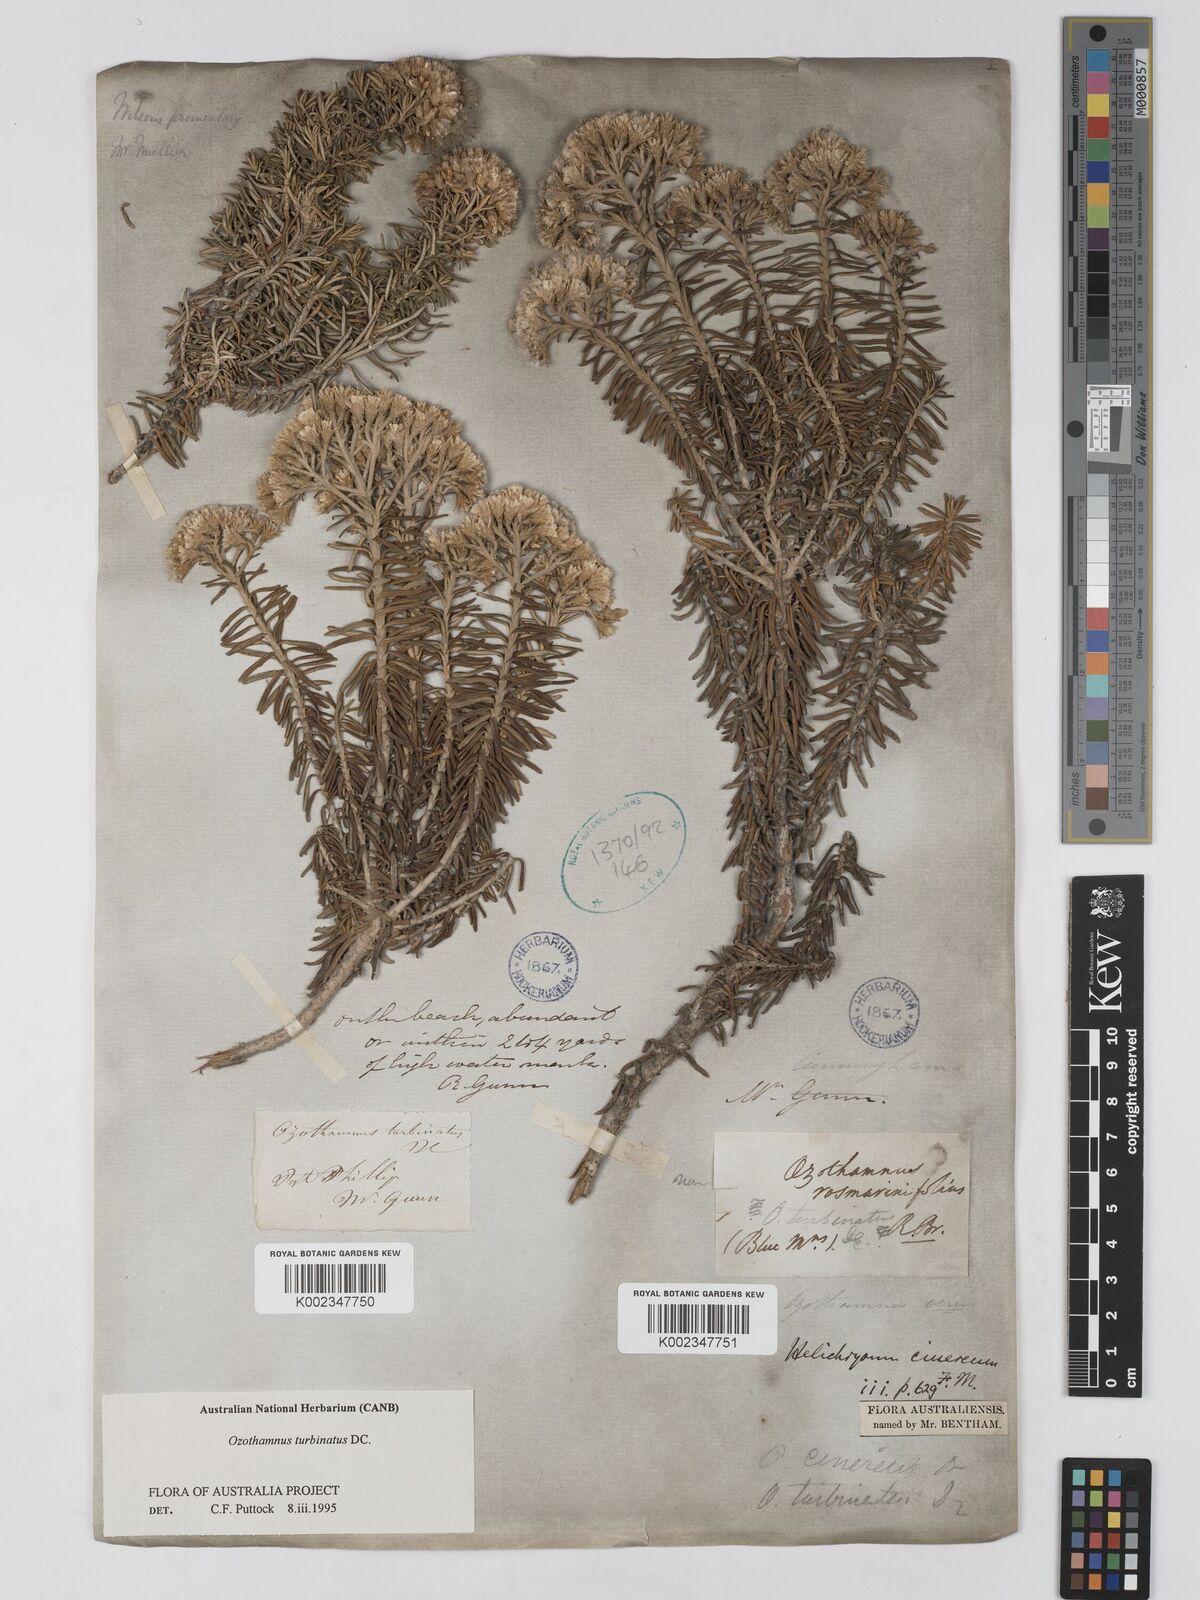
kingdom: Plantae
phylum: Tracheophyta
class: Magnoliopsida
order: Asterales
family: Asteraceae
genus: Ozothamnus
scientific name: Ozothamnus cinereus
